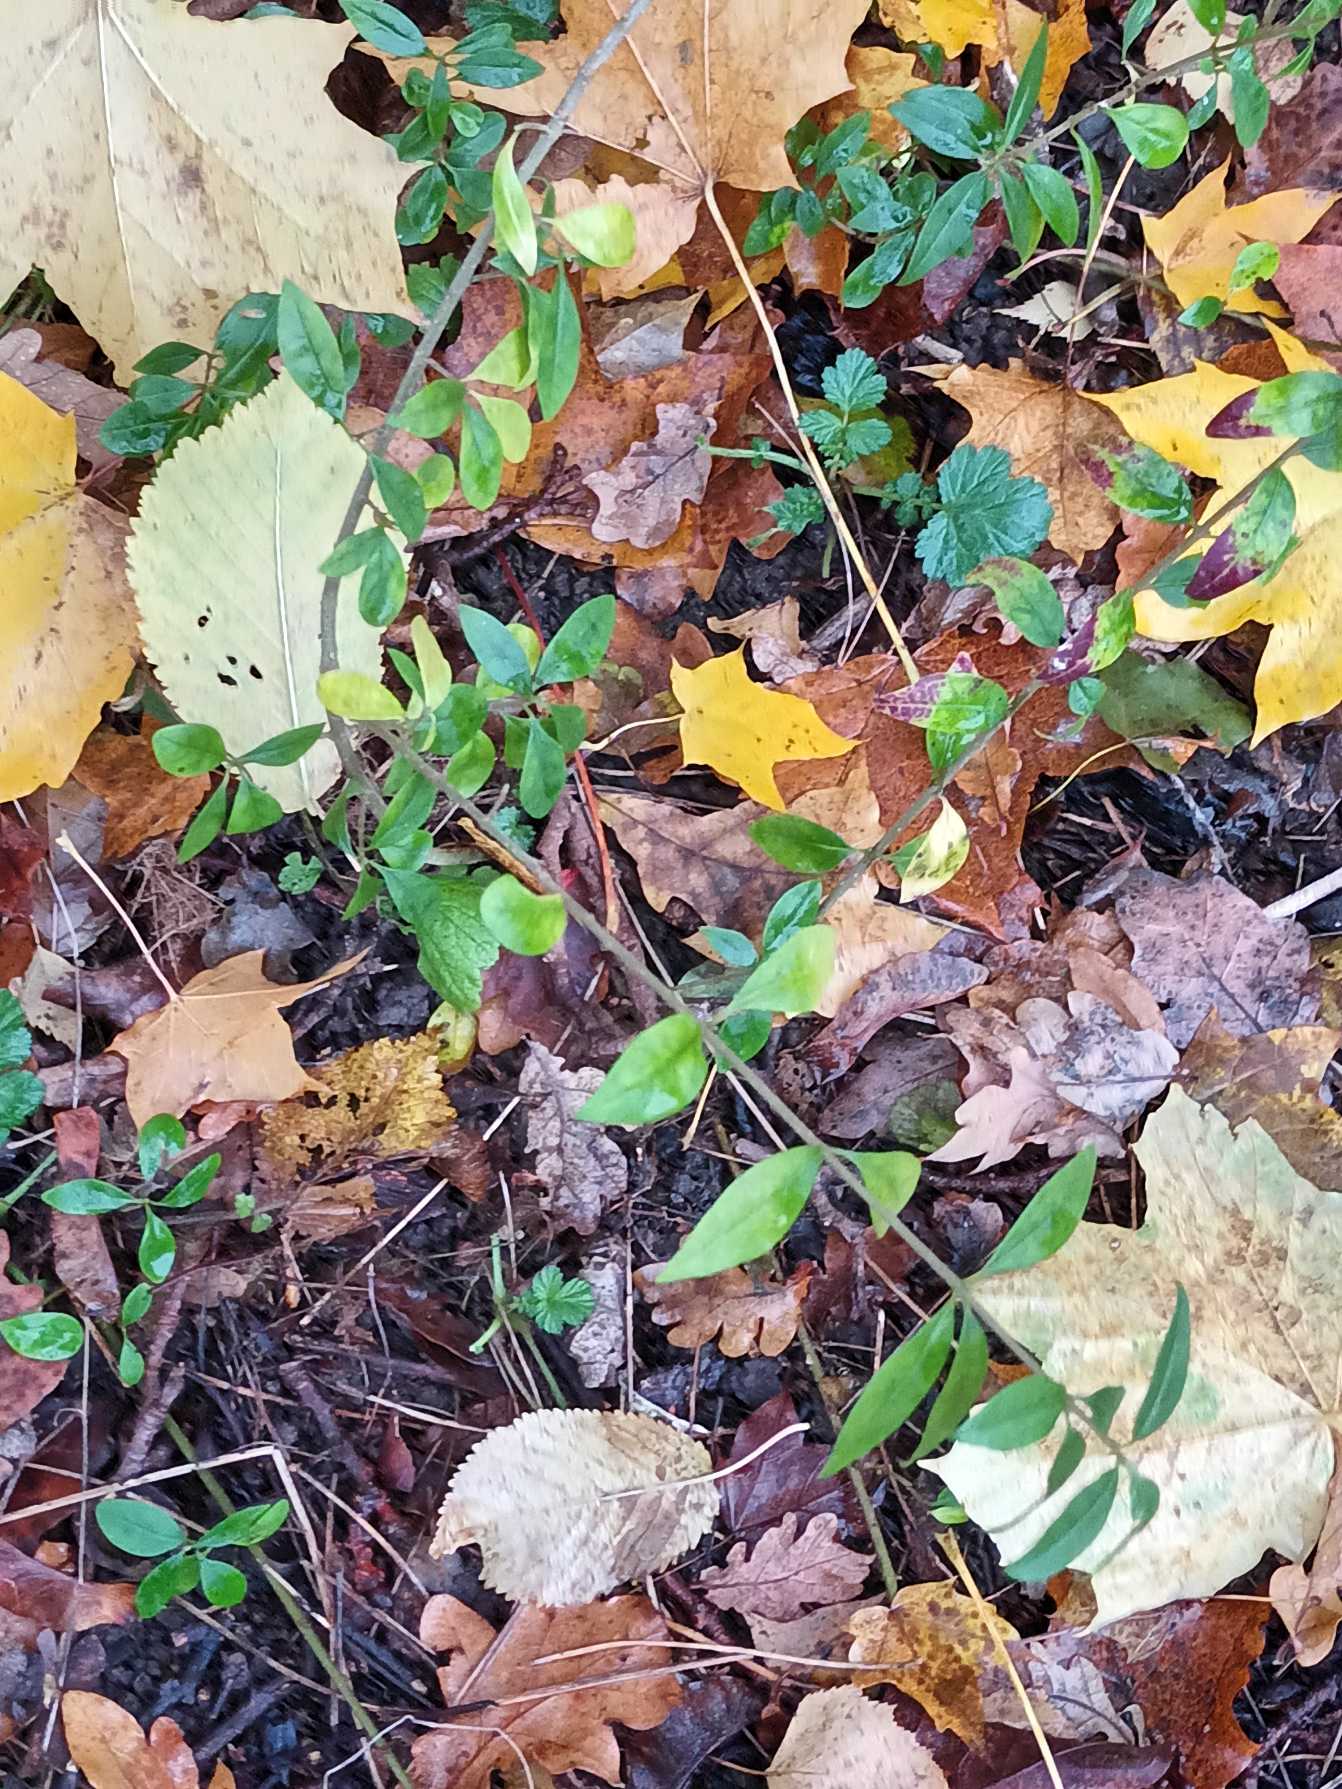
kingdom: Plantae
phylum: Tracheophyta
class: Magnoliopsida
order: Lamiales
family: Oleaceae
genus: Ligustrum
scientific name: Ligustrum vulgare
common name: Liguster
